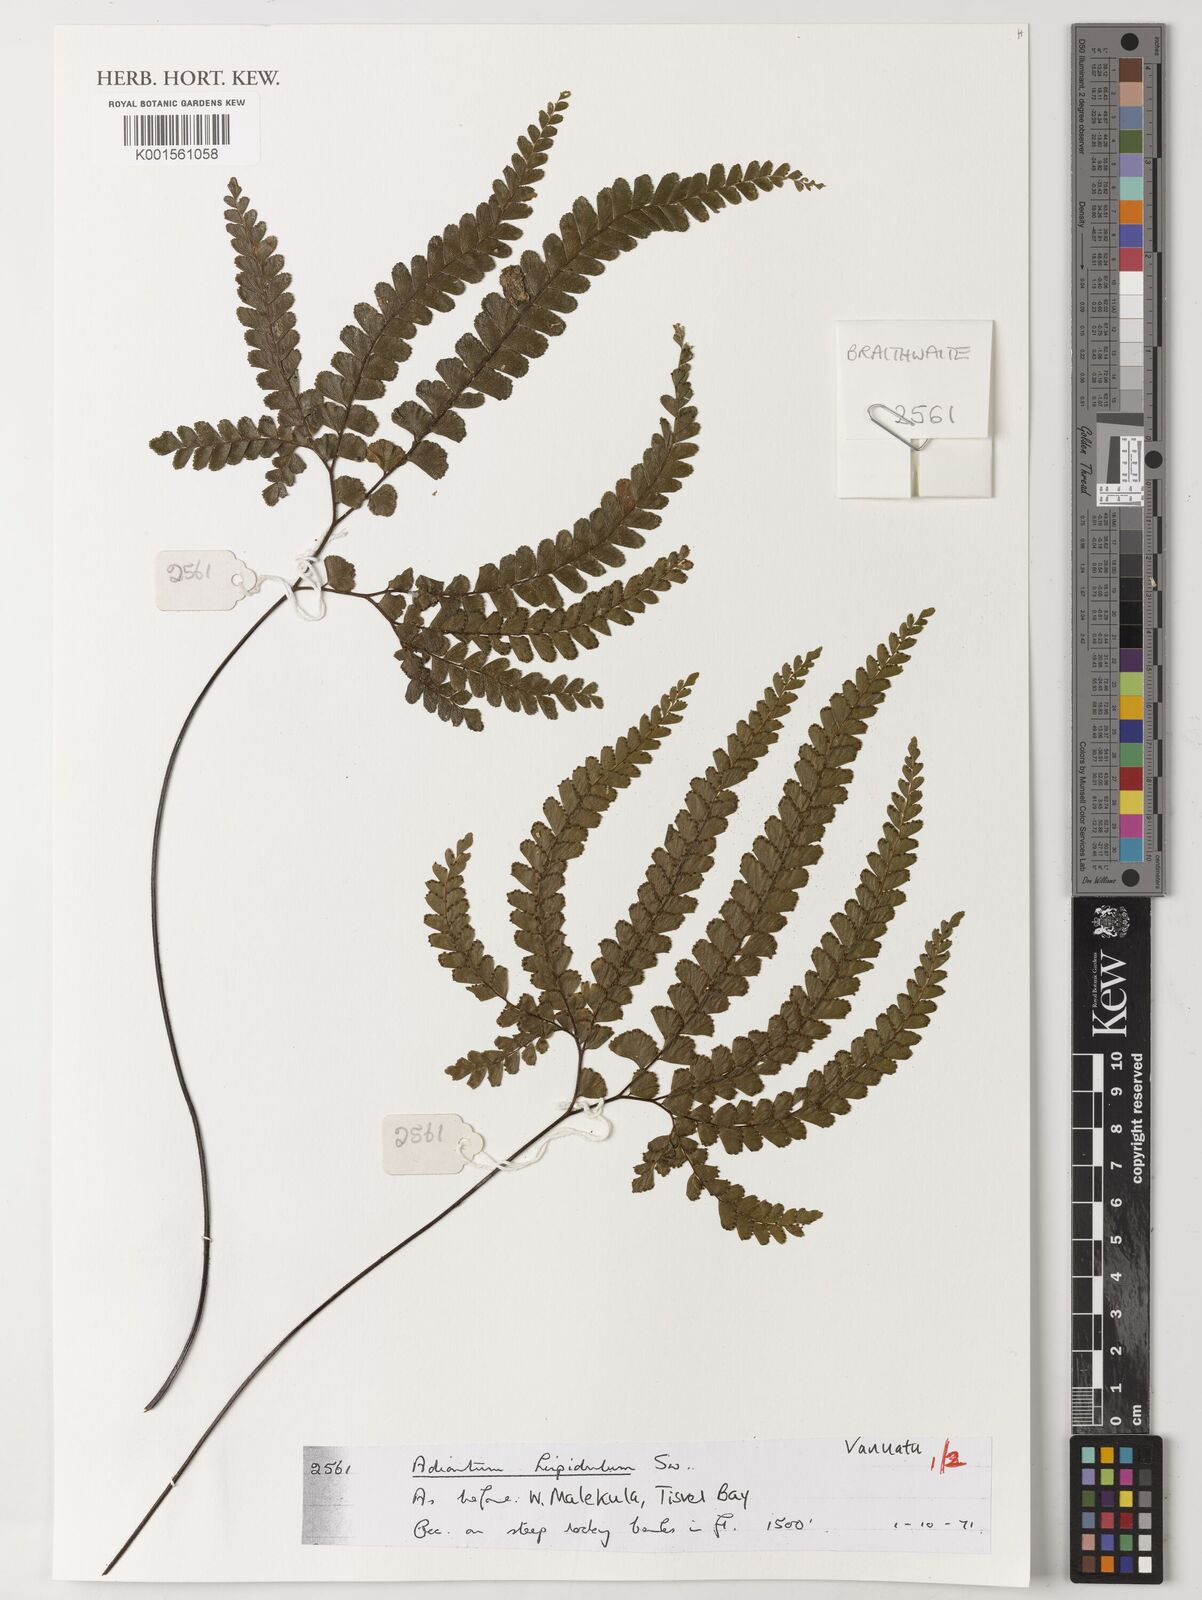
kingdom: Plantae
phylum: Tracheophyta
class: Polypodiopsida
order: Polypodiales
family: Pteridaceae
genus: Adiantum
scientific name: Adiantum hispidulum
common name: Rough maidenhair
